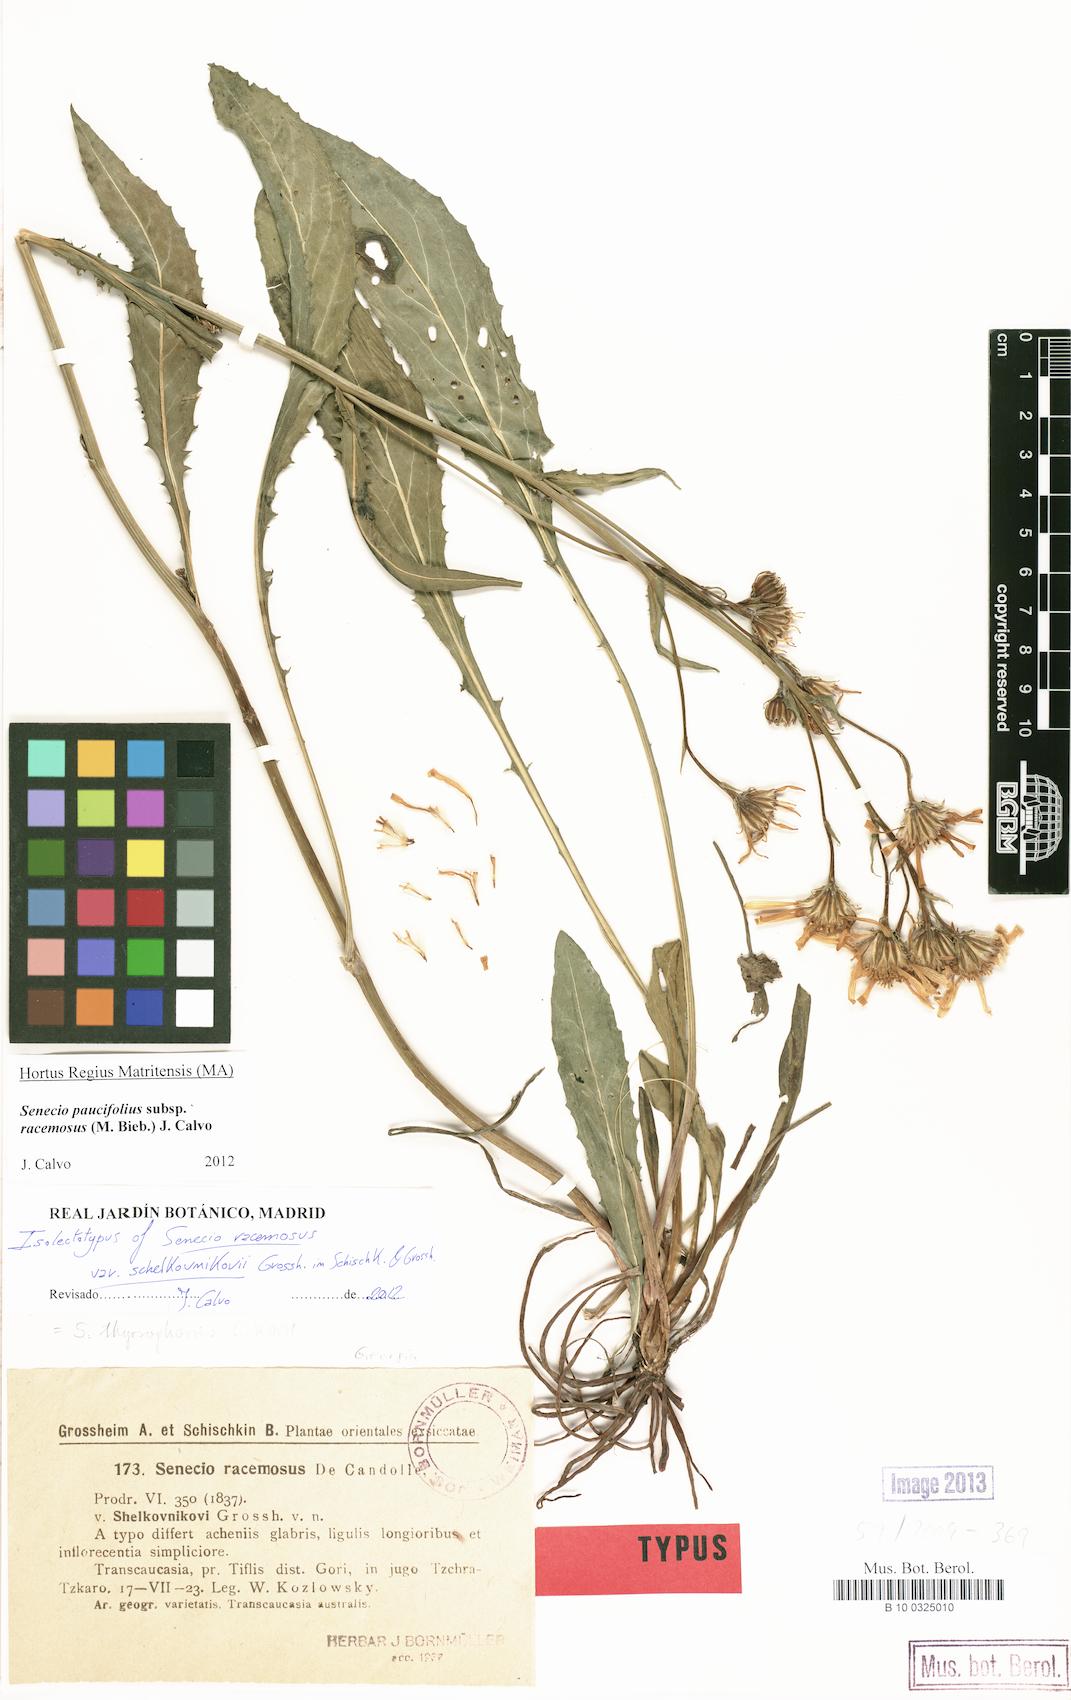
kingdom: Plantae
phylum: Tracheophyta
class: Magnoliopsida
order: Asterales
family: Asteraceae
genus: Jacobaea
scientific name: Jacobaea racemosa
